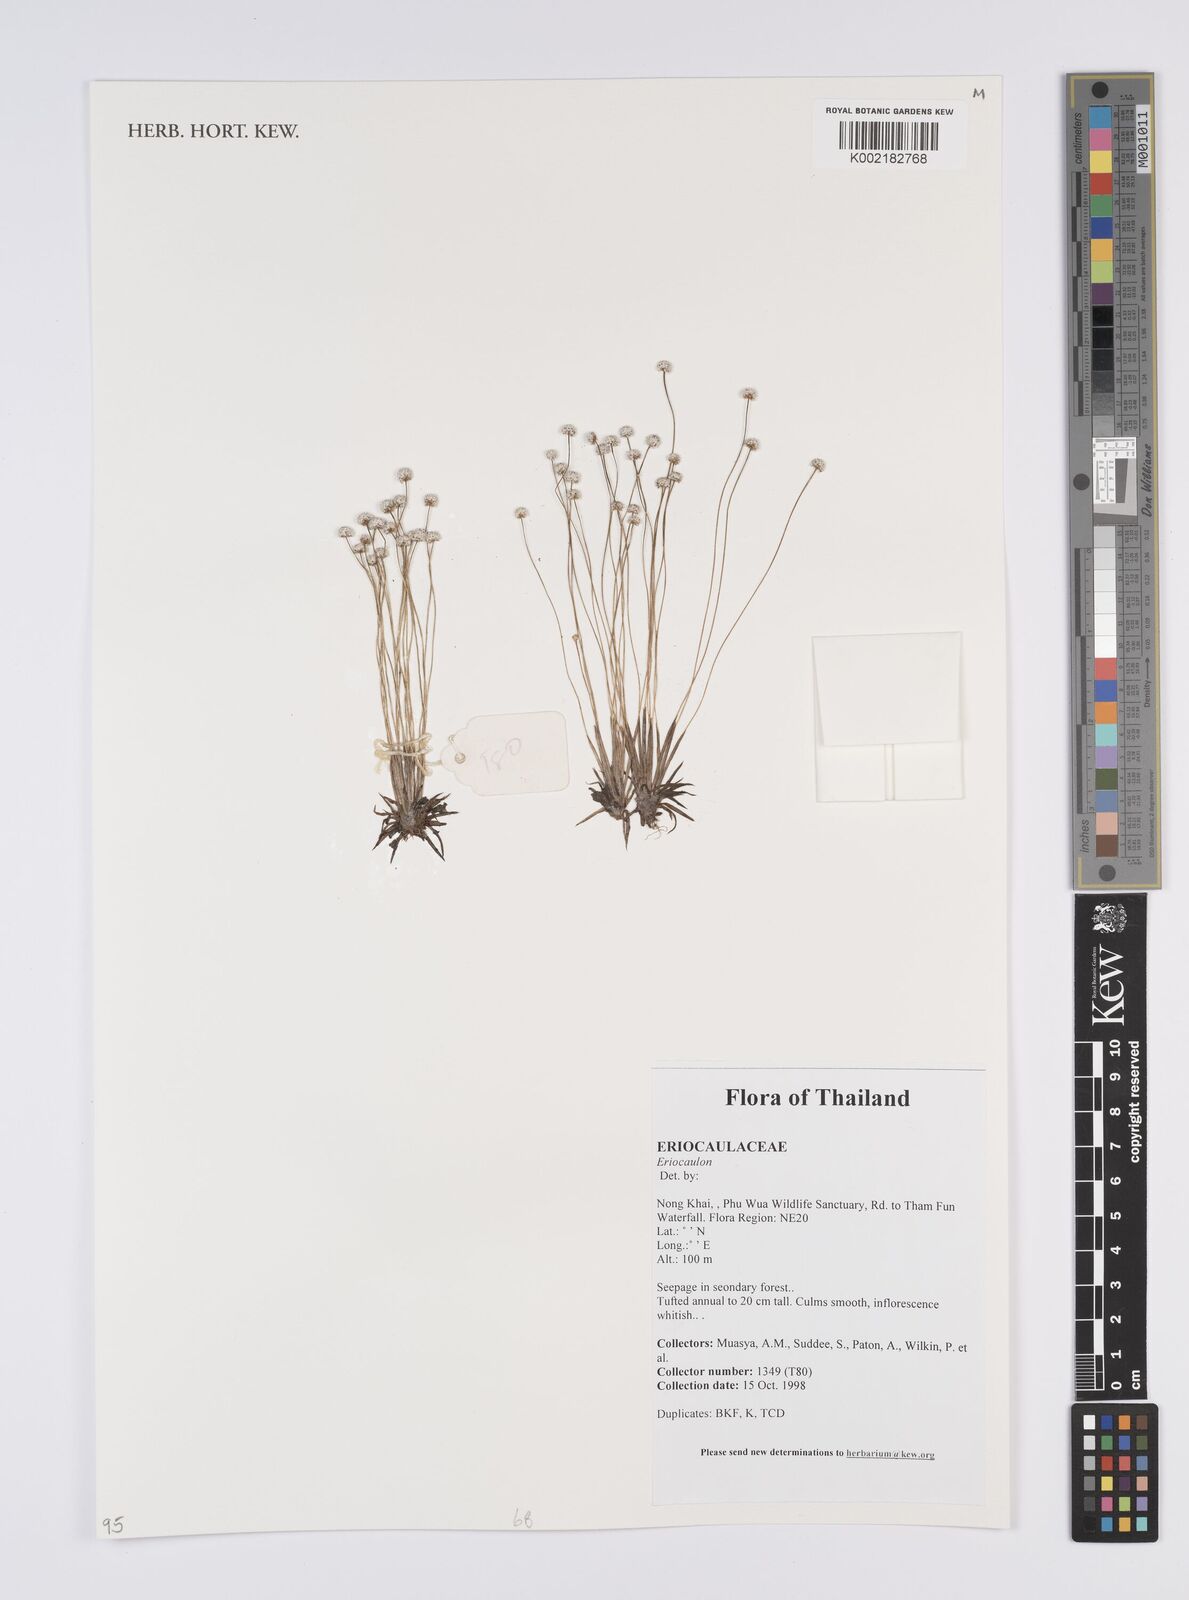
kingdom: Plantae
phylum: Tracheophyta
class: Liliopsida
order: Poales
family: Eriocaulaceae
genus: Eriocaulon
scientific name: Eriocaulon
